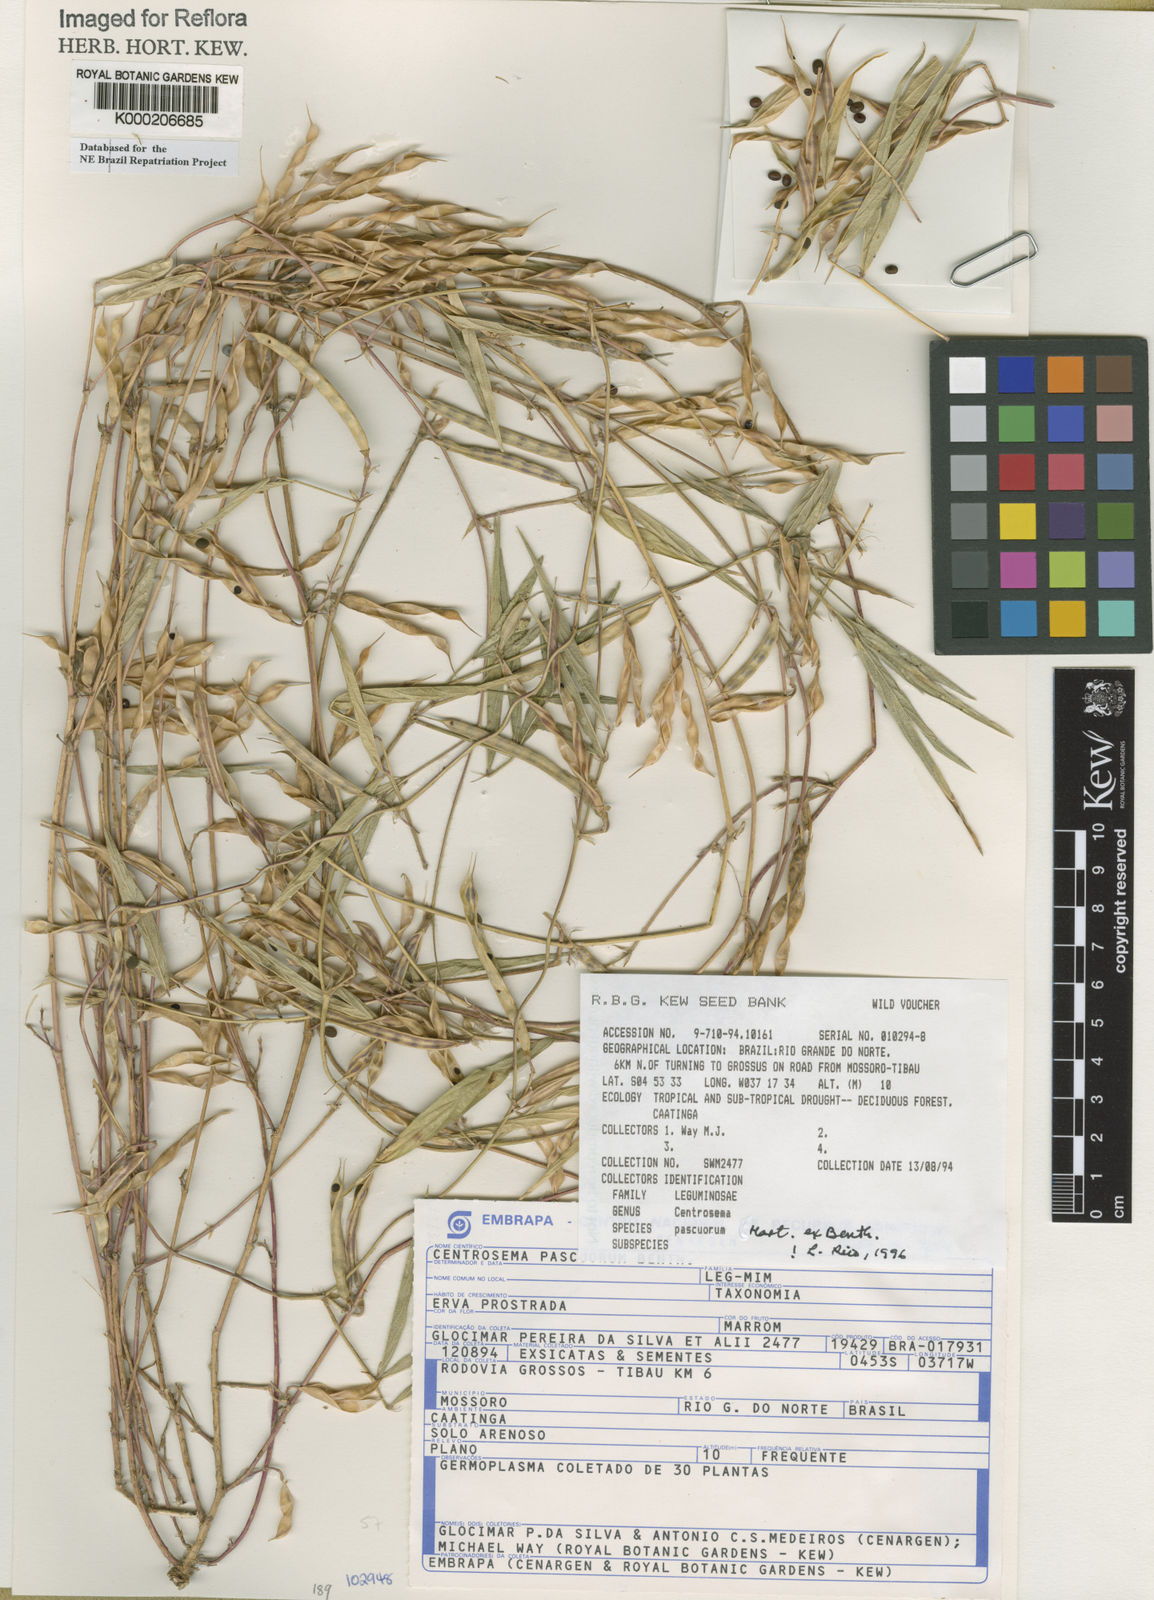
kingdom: Plantae
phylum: Tracheophyta
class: Magnoliopsida
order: Fabales
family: Fabaceae
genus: Centrosema
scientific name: Centrosema pascuorum
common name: Centurion
